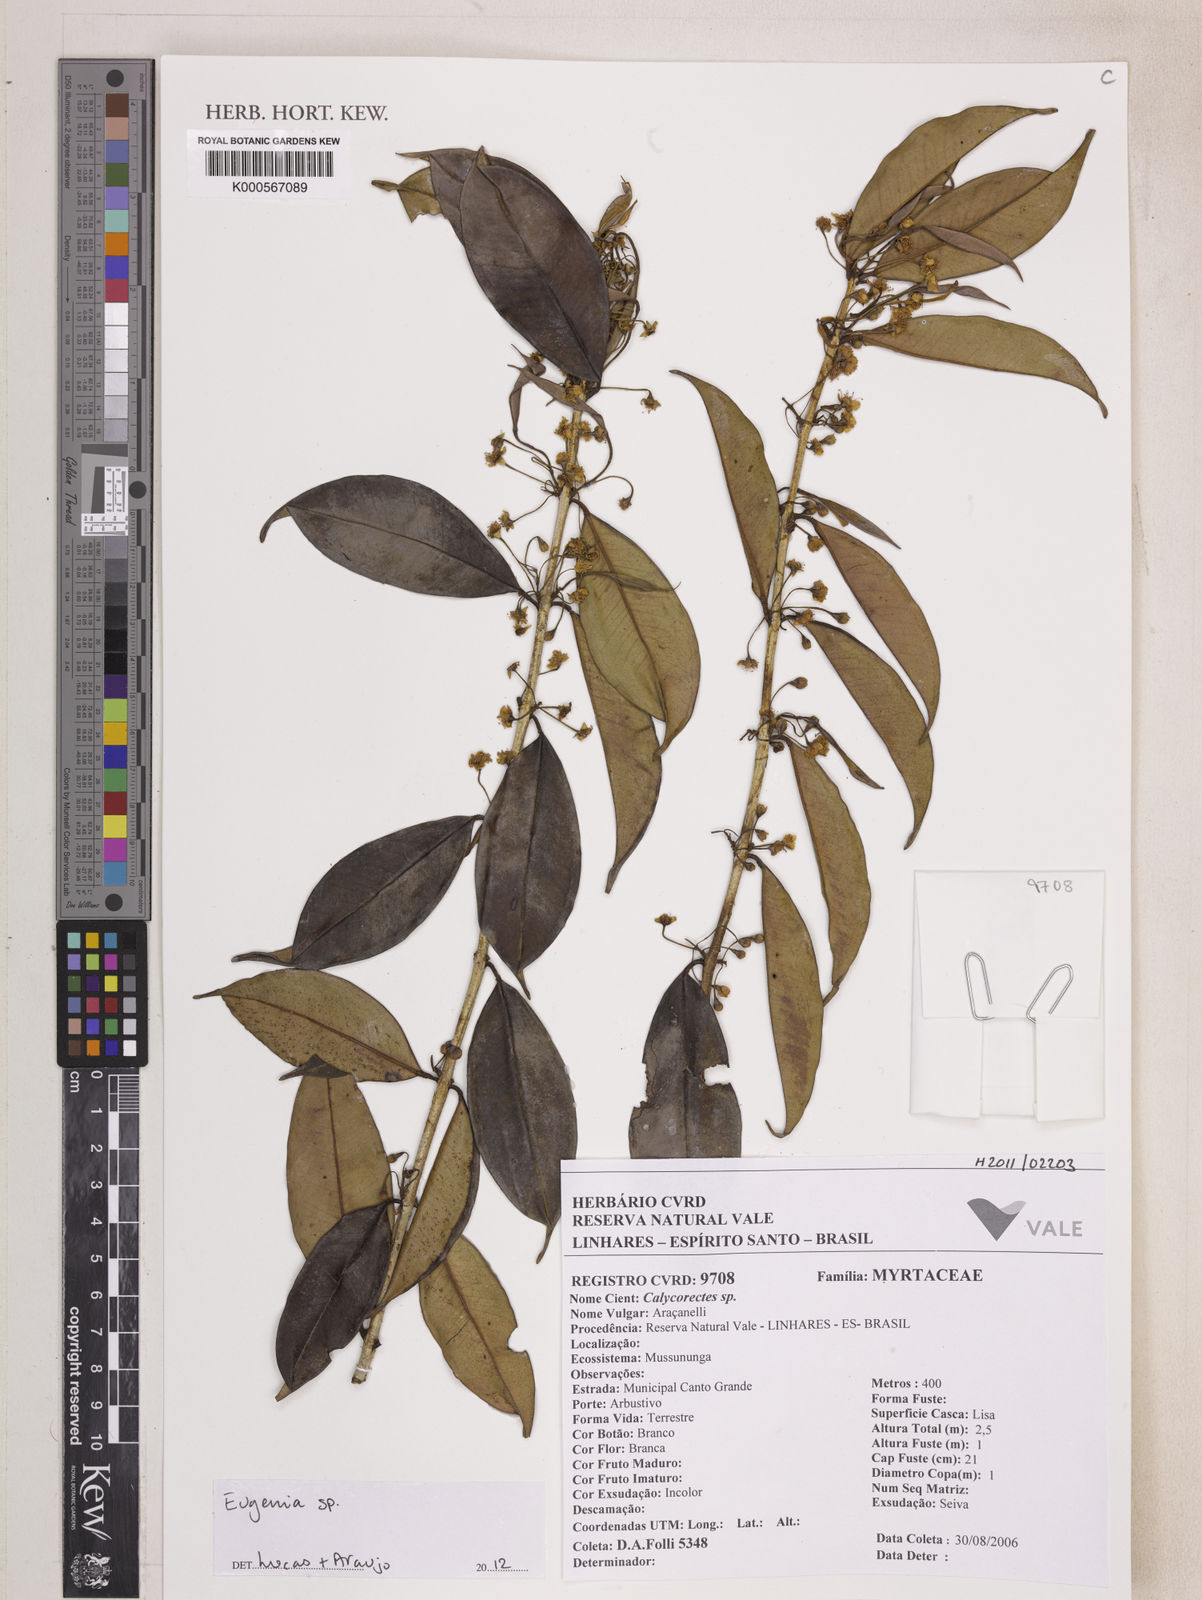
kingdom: Plantae
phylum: Tracheophyta
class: Magnoliopsida
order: Myrtales
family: Myrtaceae
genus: Eugenia
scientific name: Eugenia zuccarinii
